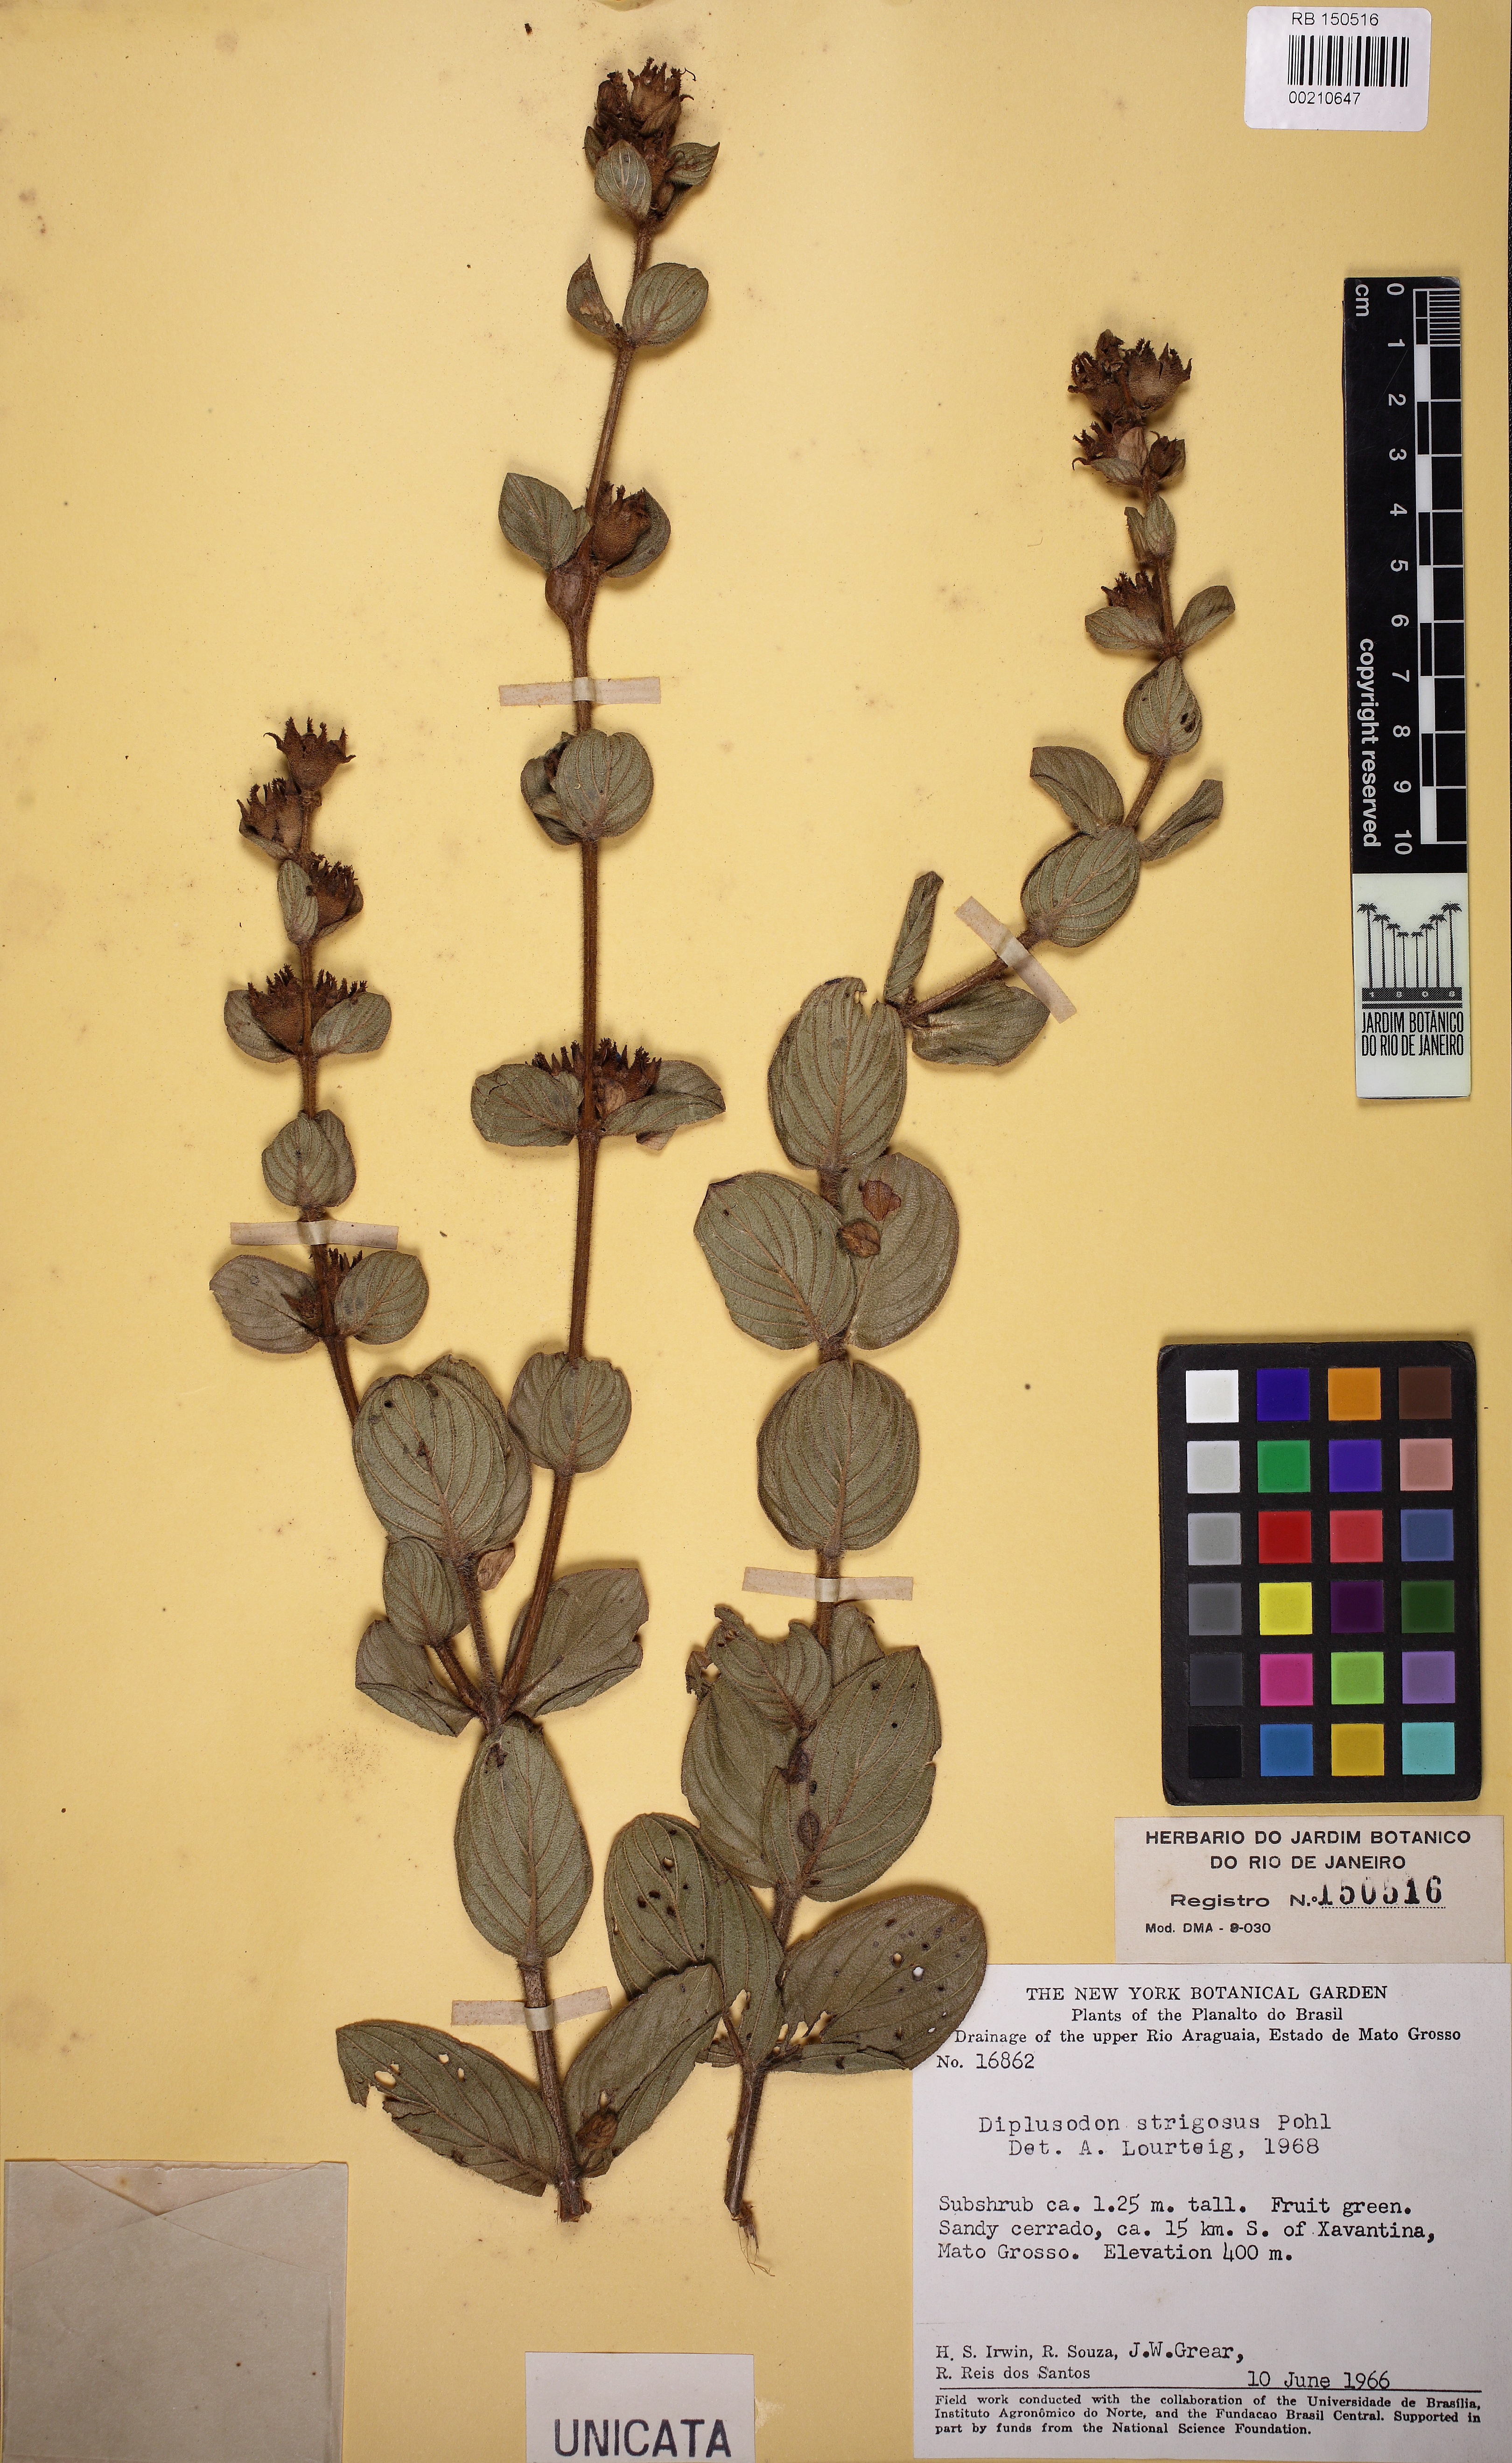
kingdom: Plantae
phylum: Tracheophyta
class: Magnoliopsida
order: Myrtales
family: Lythraceae
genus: Diplusodon
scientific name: Diplusodon strigosus
